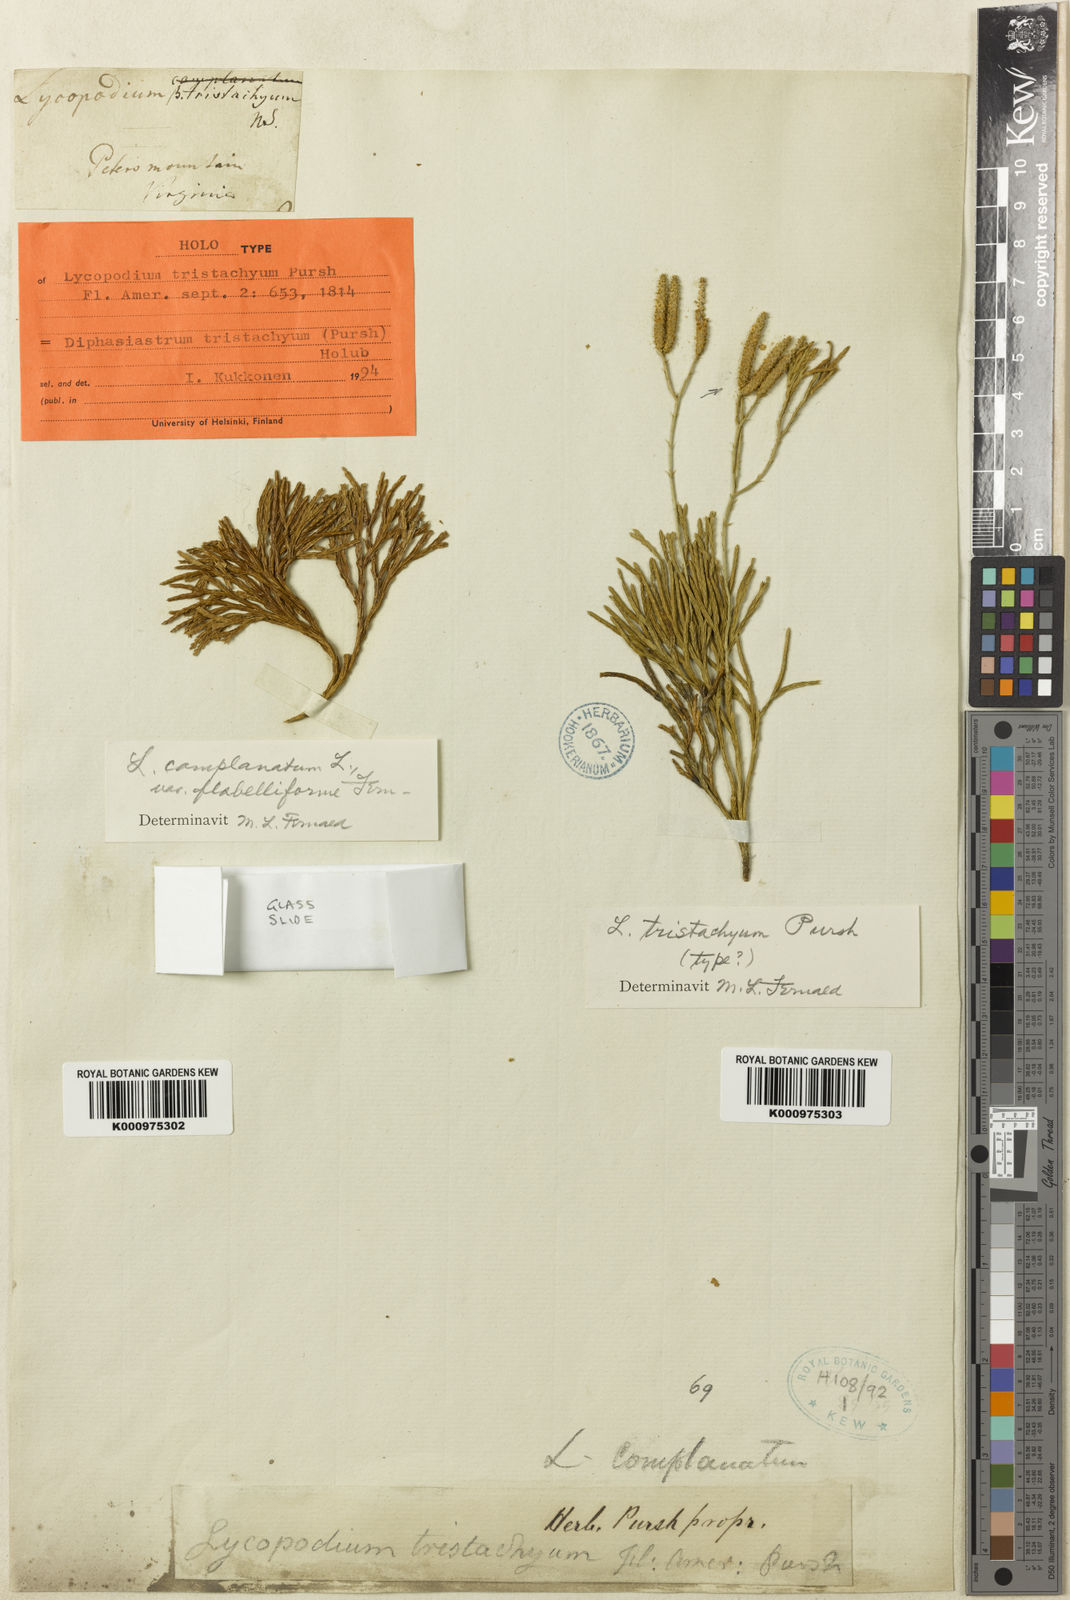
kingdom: Plantae
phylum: Tracheophyta
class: Lycopodiopsida
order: Lycopodiales
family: Lycopodiaceae
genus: Diphasiastrum
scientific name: Diphasiastrum tristachyum
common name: Blue ground-cedar
